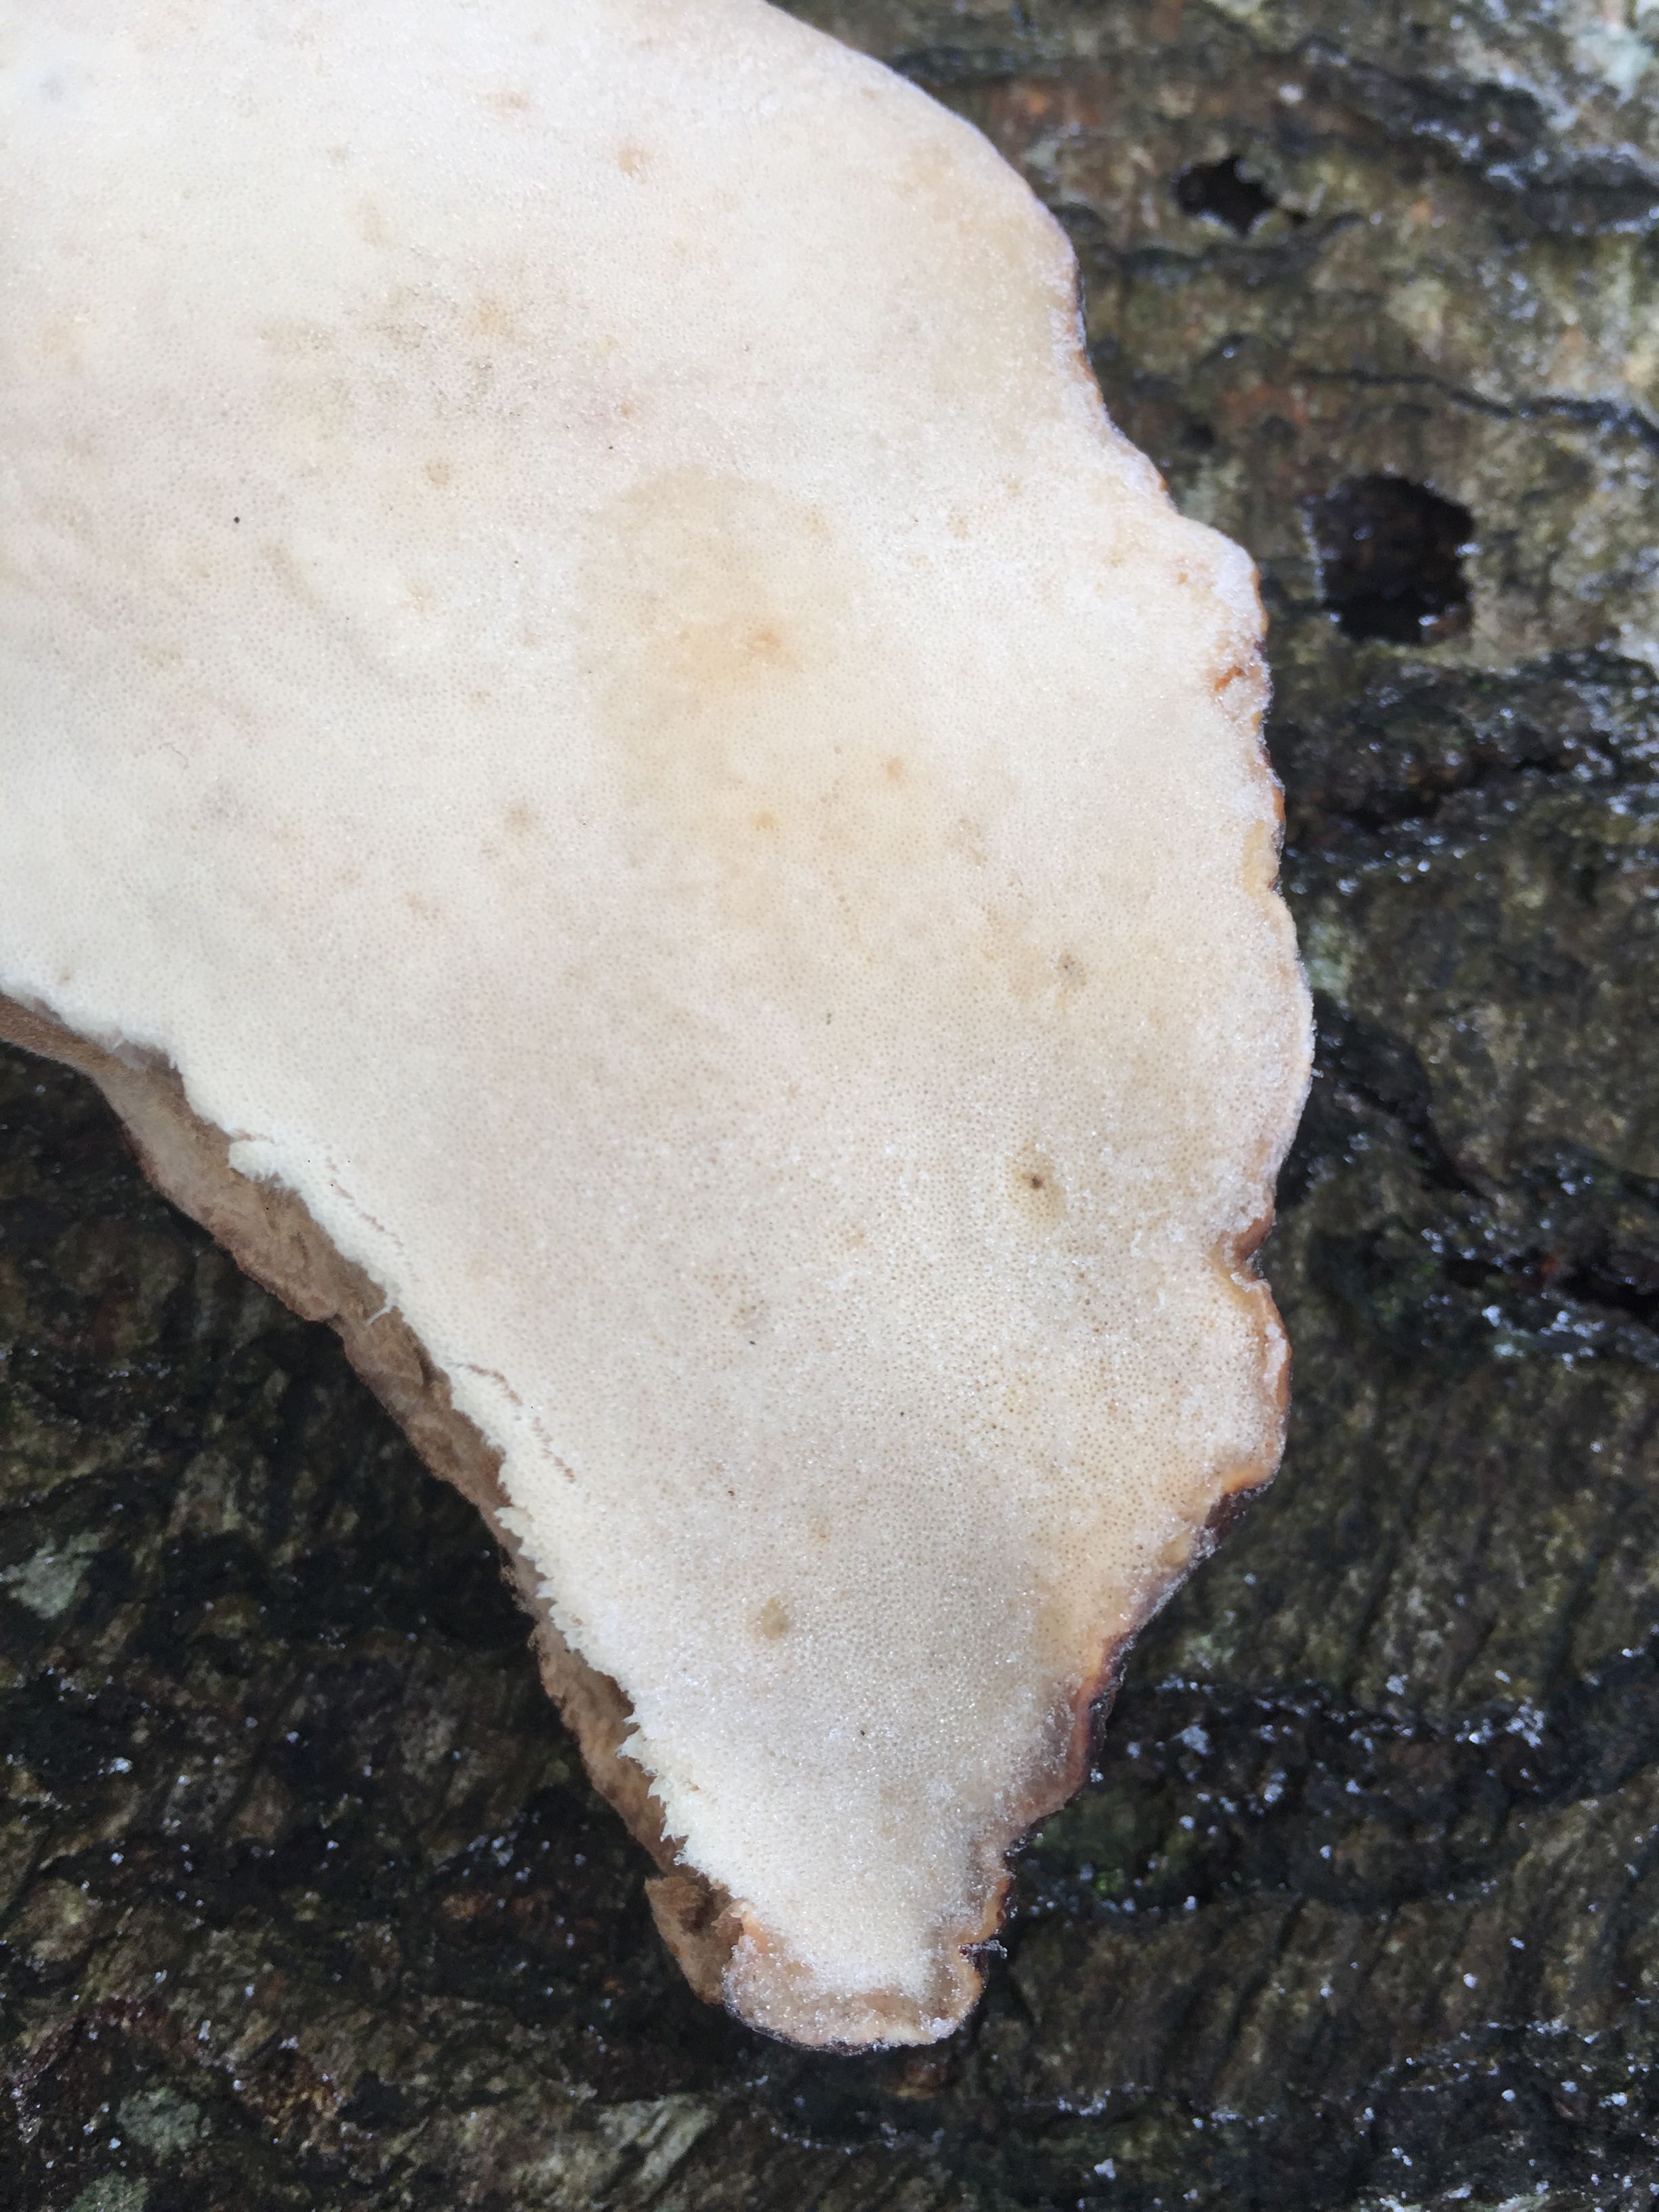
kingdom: Fungi
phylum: Basidiomycota
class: Agaricomycetes
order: Polyporales
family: Ischnodermataceae
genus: Ischnoderma
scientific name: Ischnoderma resinosum
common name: løv-tjæreporesvamp
